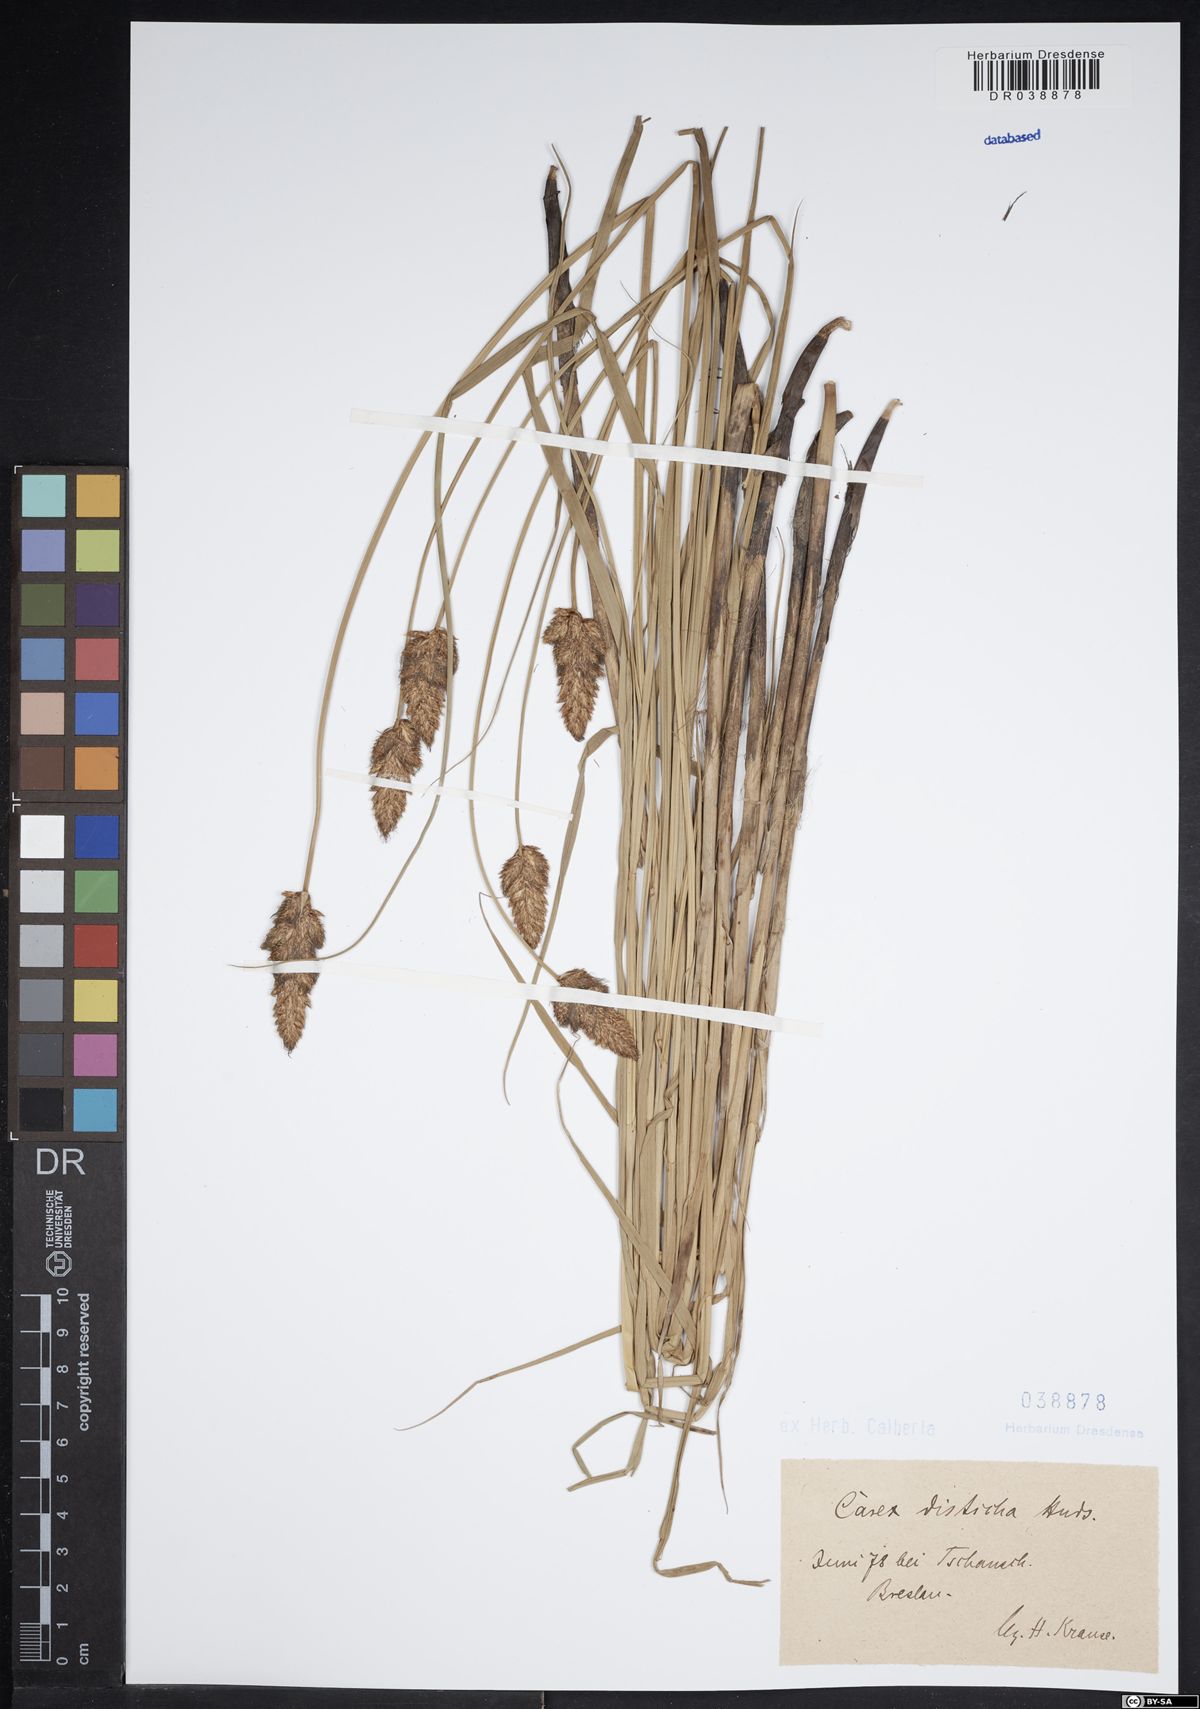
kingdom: Plantae
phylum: Tracheophyta
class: Liliopsida
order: Poales
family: Cyperaceae
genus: Carex
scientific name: Carex disticha
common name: Brown sedge
